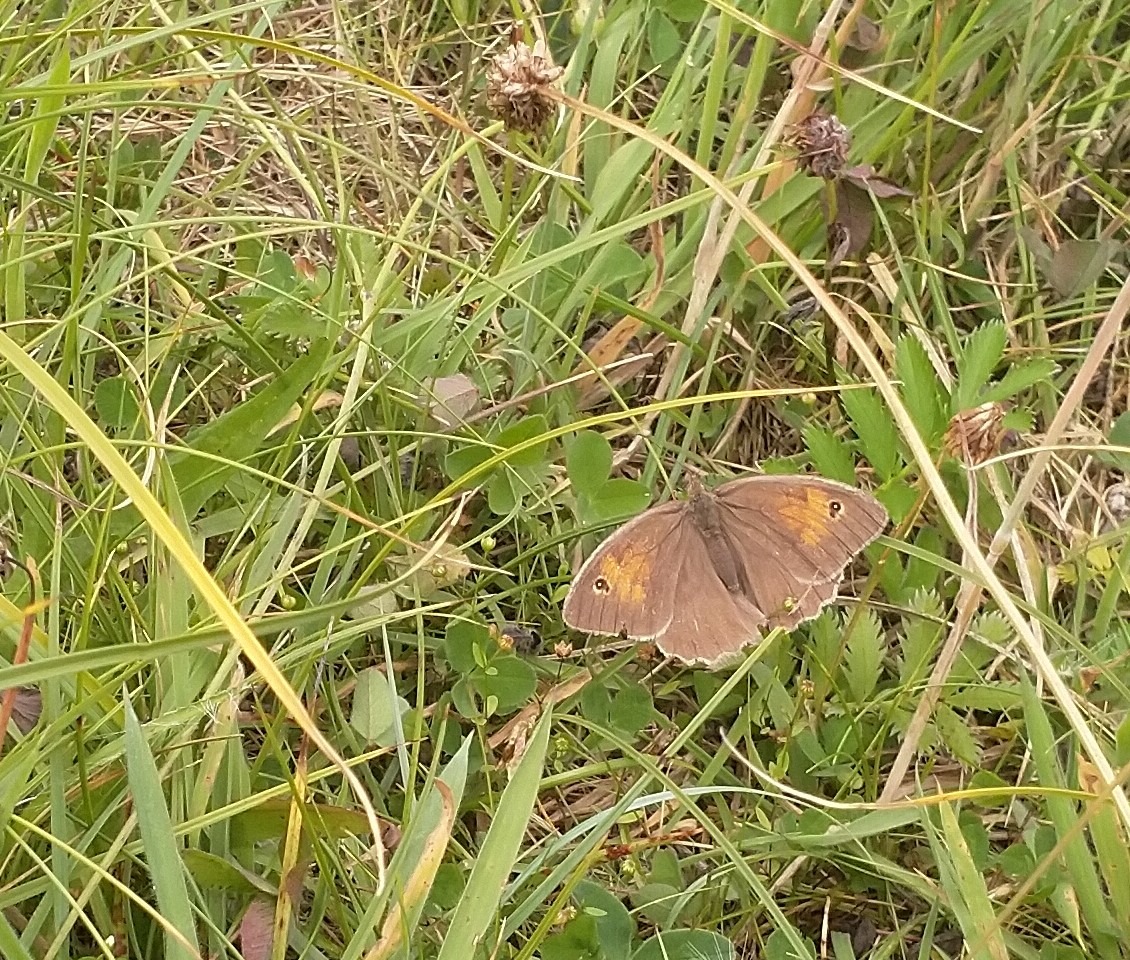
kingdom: Animalia
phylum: Arthropoda
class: Insecta
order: Lepidoptera
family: Nymphalidae
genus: Maniola
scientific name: Maniola jurtina
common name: Græsrandøje
